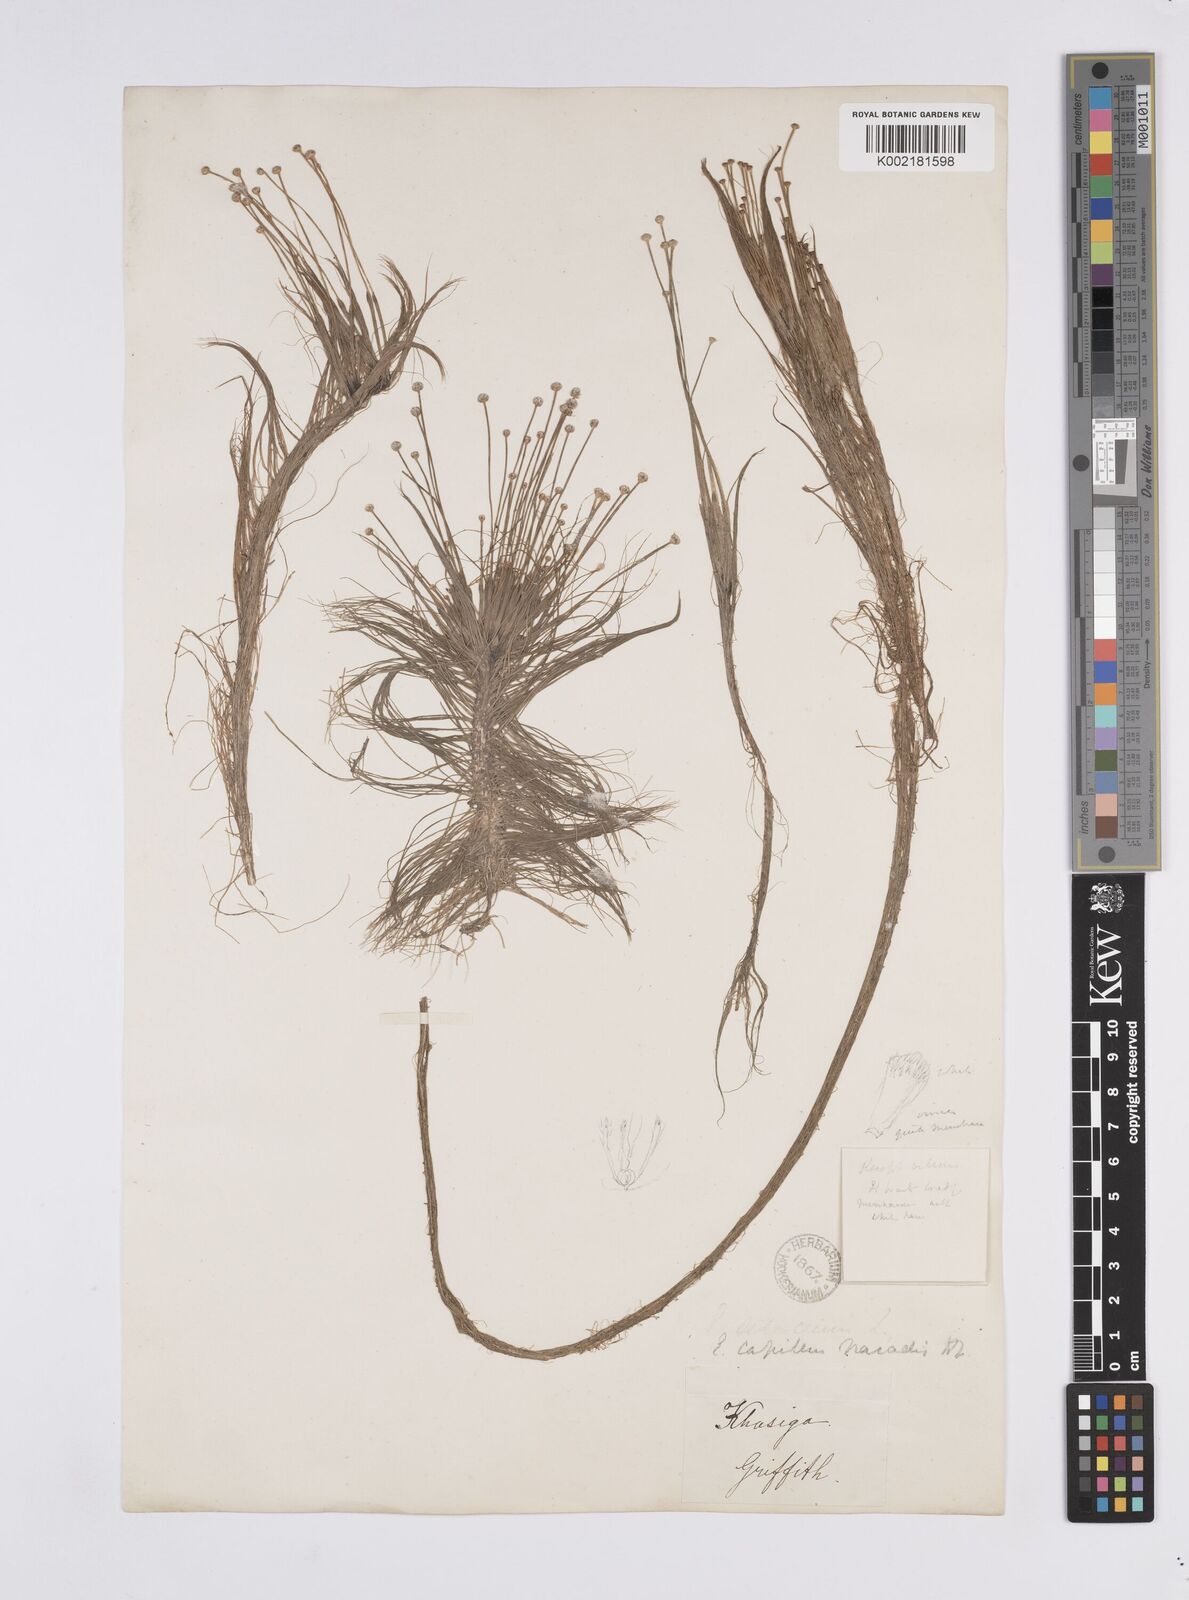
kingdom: Plantae
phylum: Tracheophyta
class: Liliopsida
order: Poales
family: Eriocaulaceae
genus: Eriocaulon
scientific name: Eriocaulon setaceum
